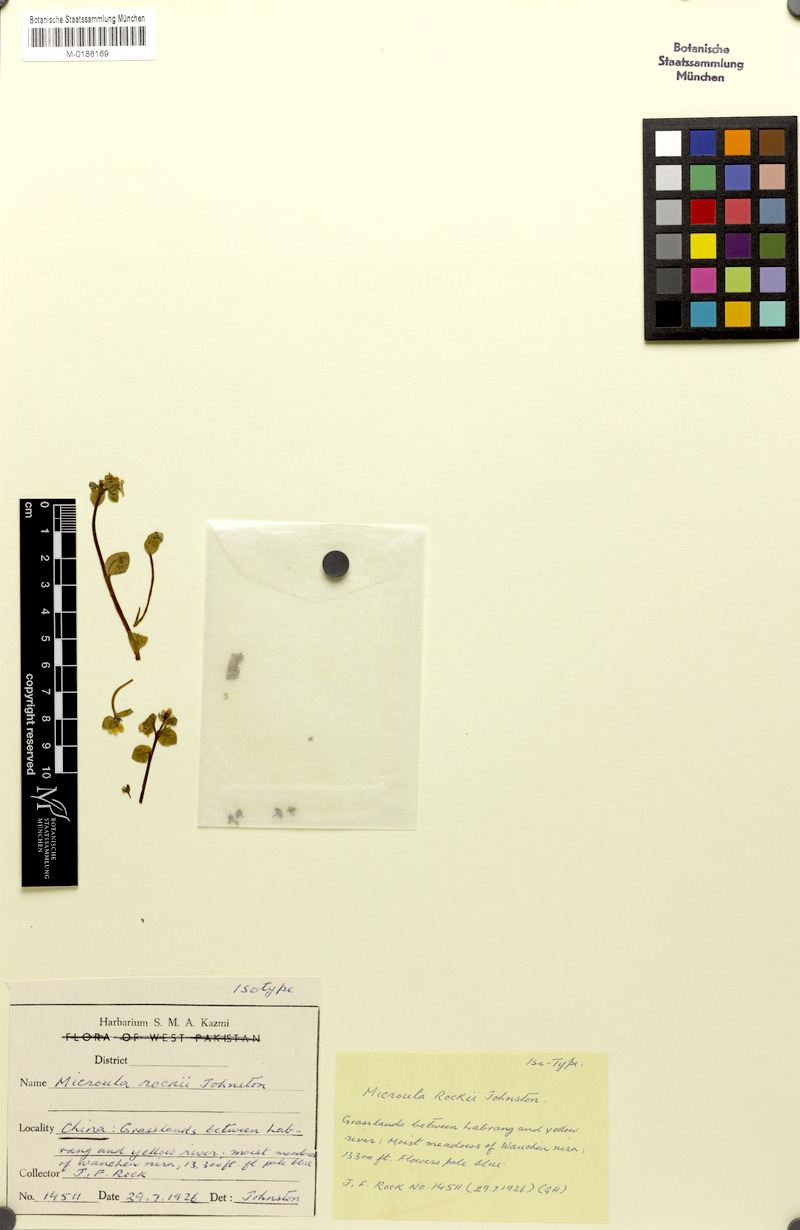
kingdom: Plantae
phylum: Tracheophyta
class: Magnoliopsida
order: Boraginales
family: Boraginaceae
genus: Microula
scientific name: Microula rockii
